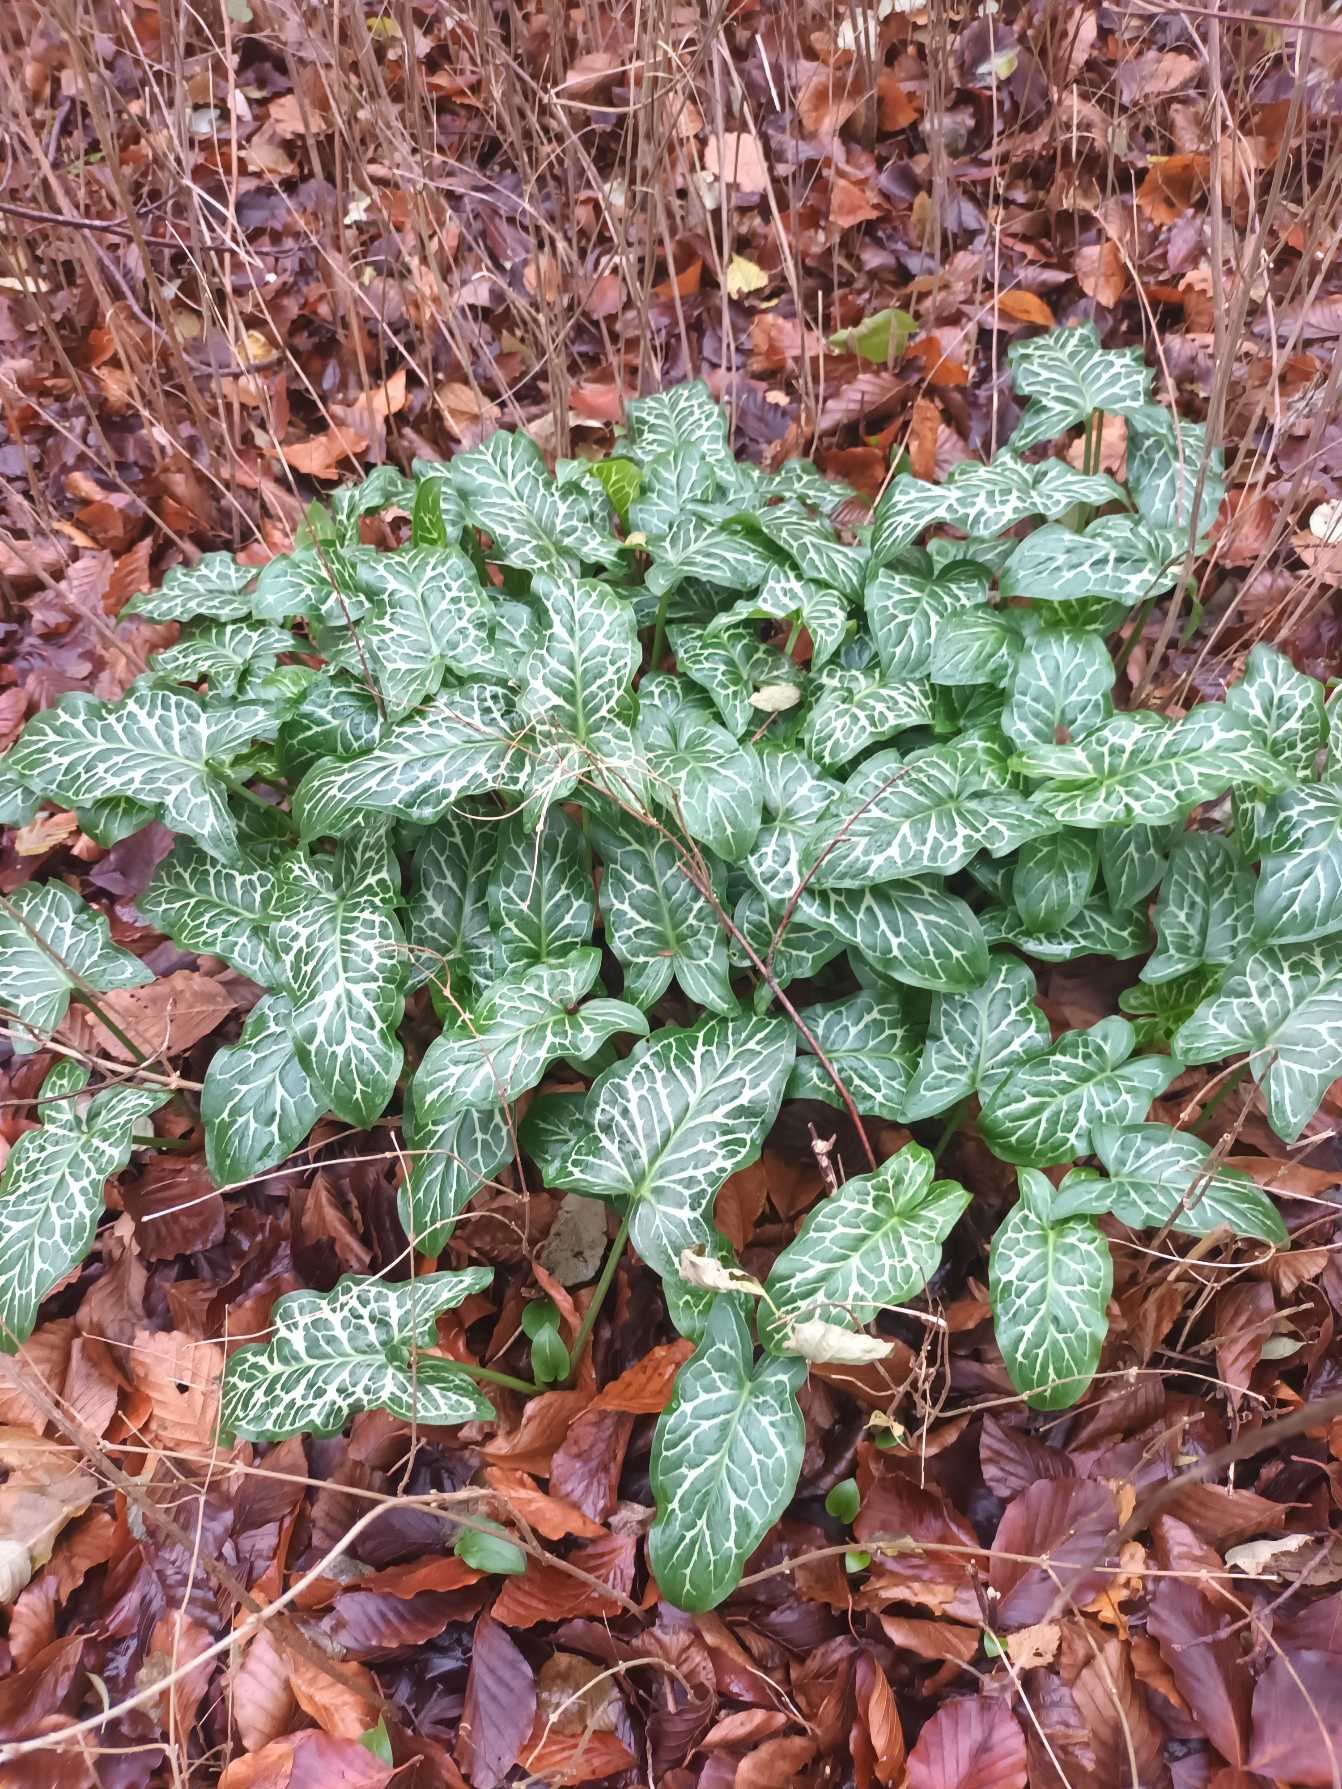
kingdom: Plantae
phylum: Tracheophyta
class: Liliopsida
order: Alismatales
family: Araceae
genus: Arum
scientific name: Arum italicum
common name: Italiensk arum
